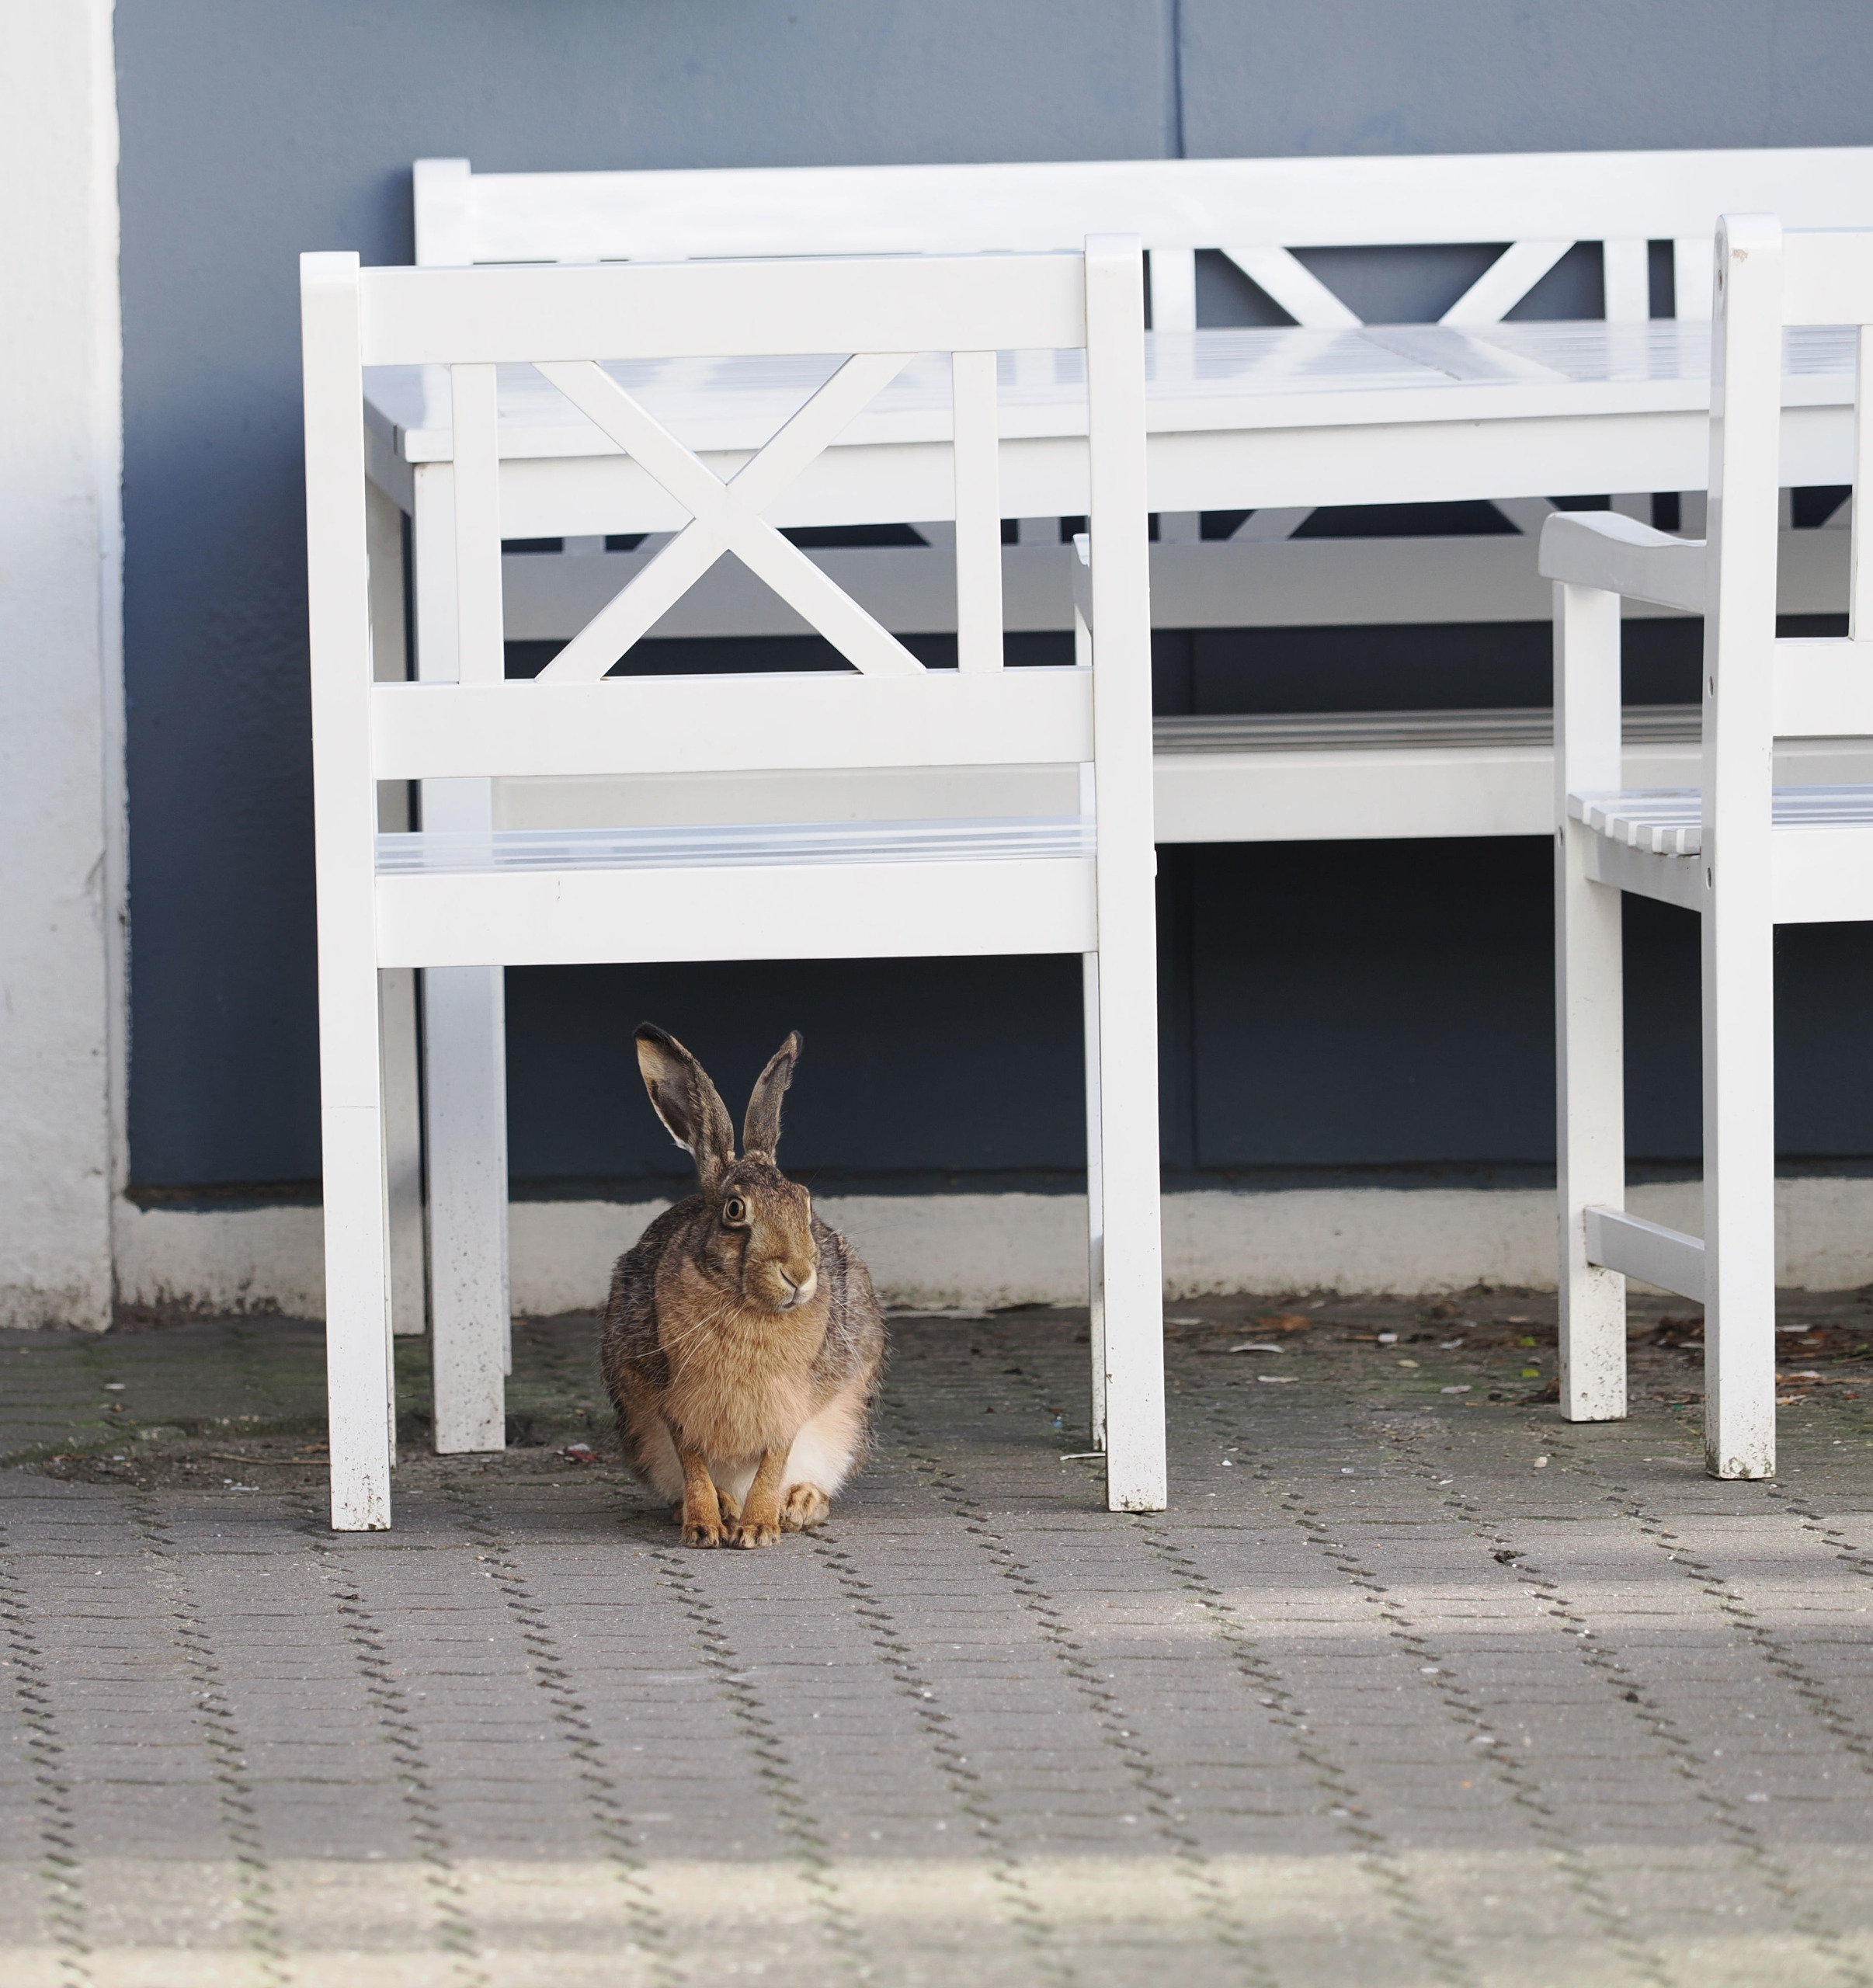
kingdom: Animalia
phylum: Chordata
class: Mammalia
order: Lagomorpha
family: Leporidae
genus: Lepus
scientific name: Lepus europaeus
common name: Hare
